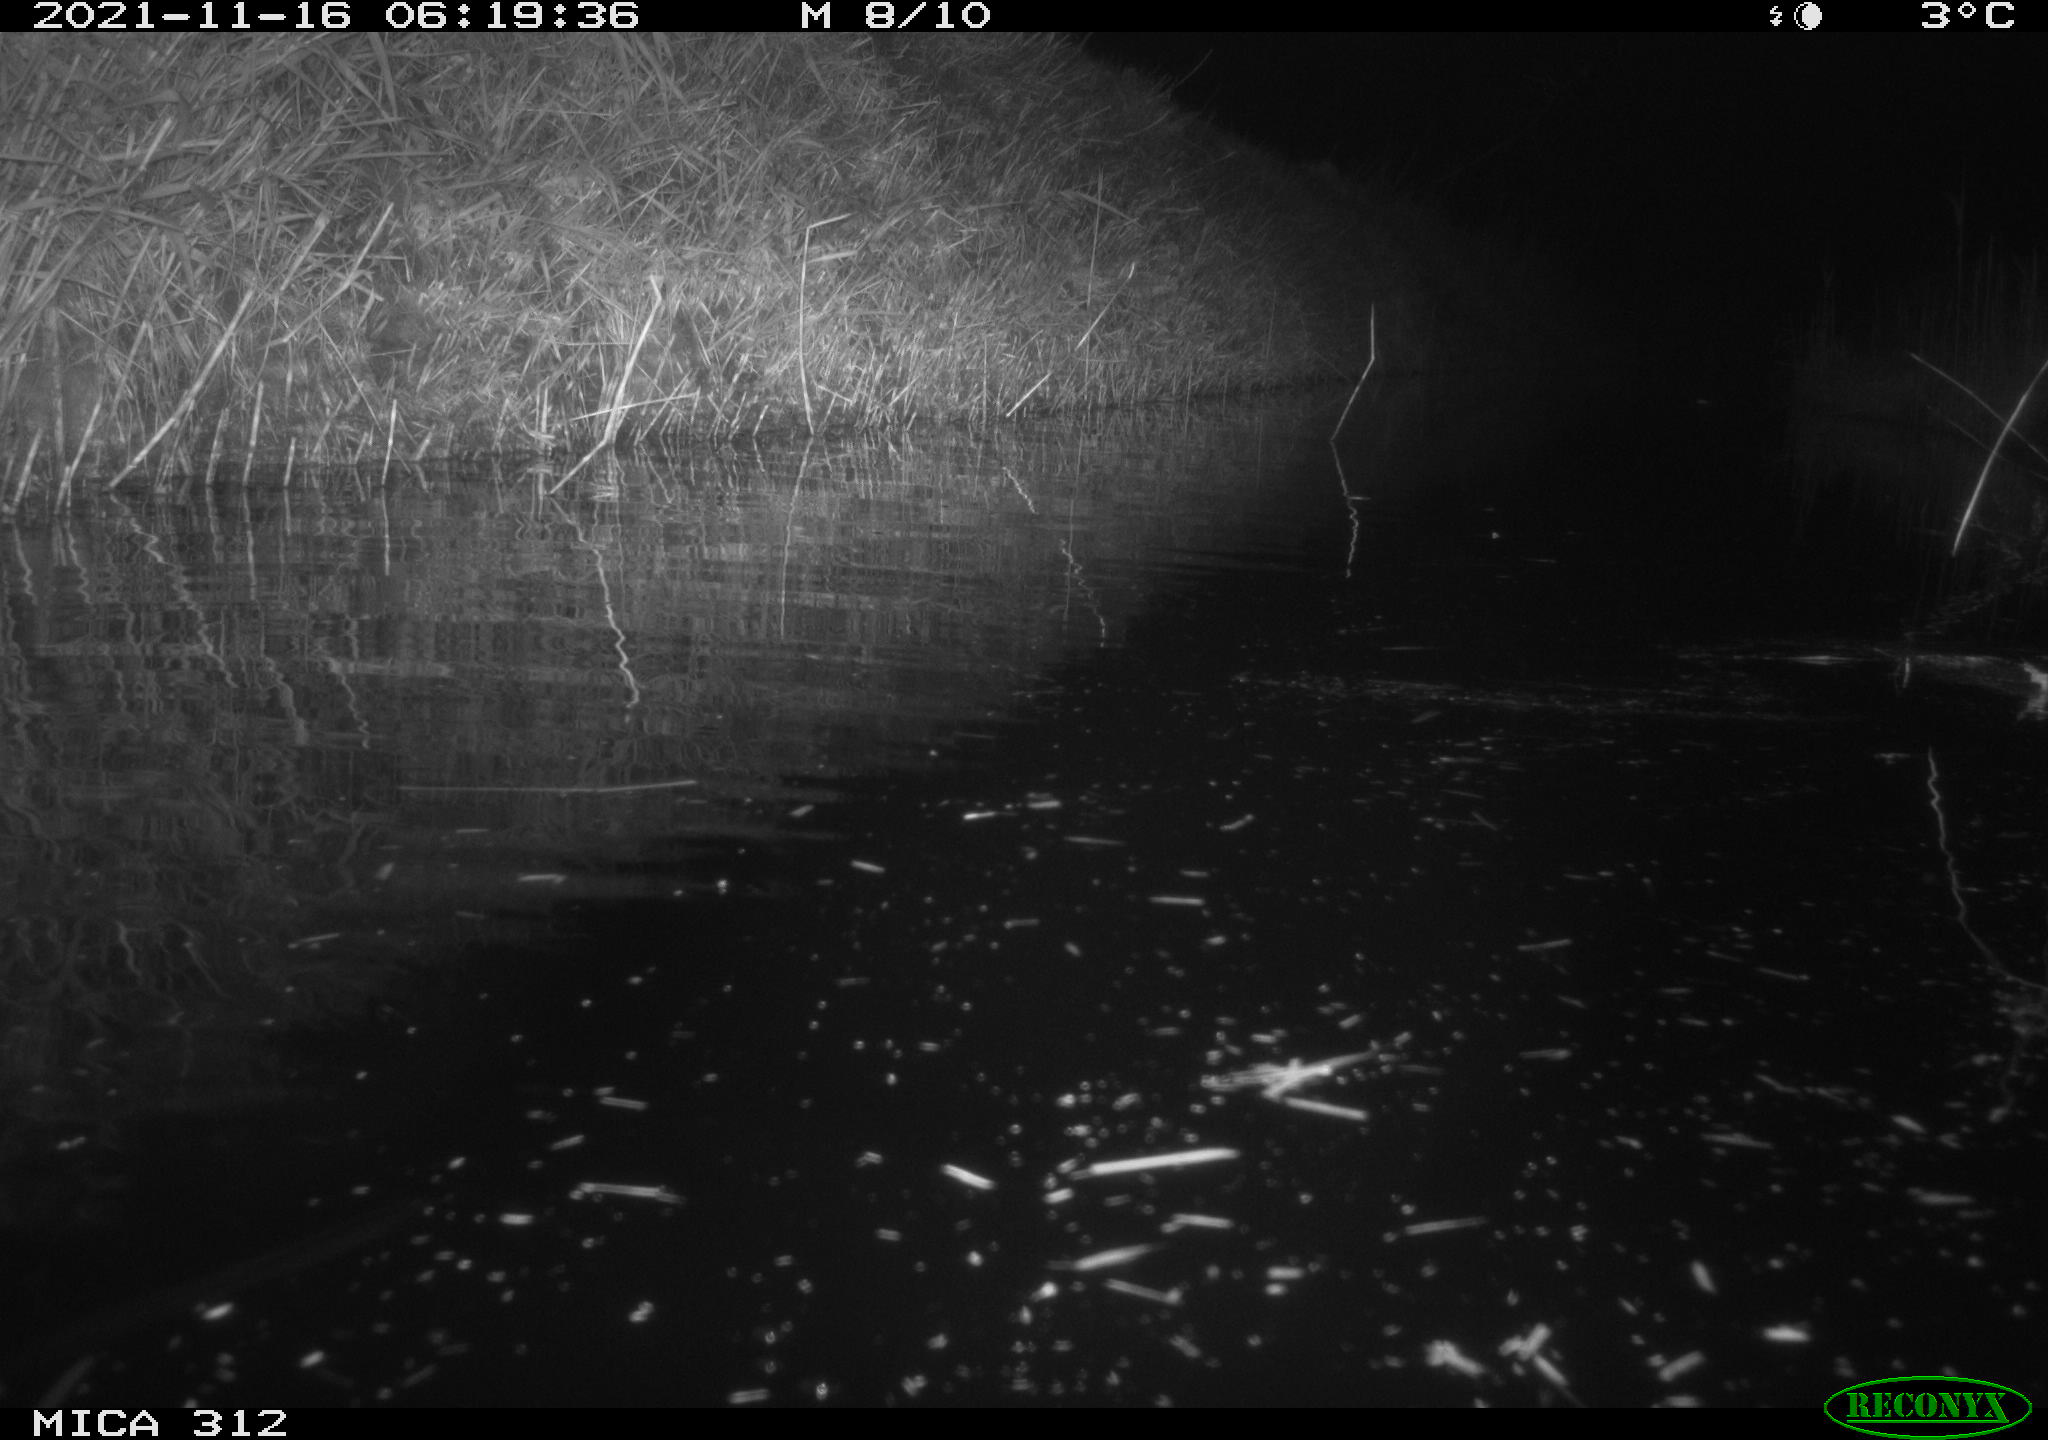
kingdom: Animalia
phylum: Chordata
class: Mammalia
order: Rodentia
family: Muridae
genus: Rattus
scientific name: Rattus norvegicus
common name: Brown rat
